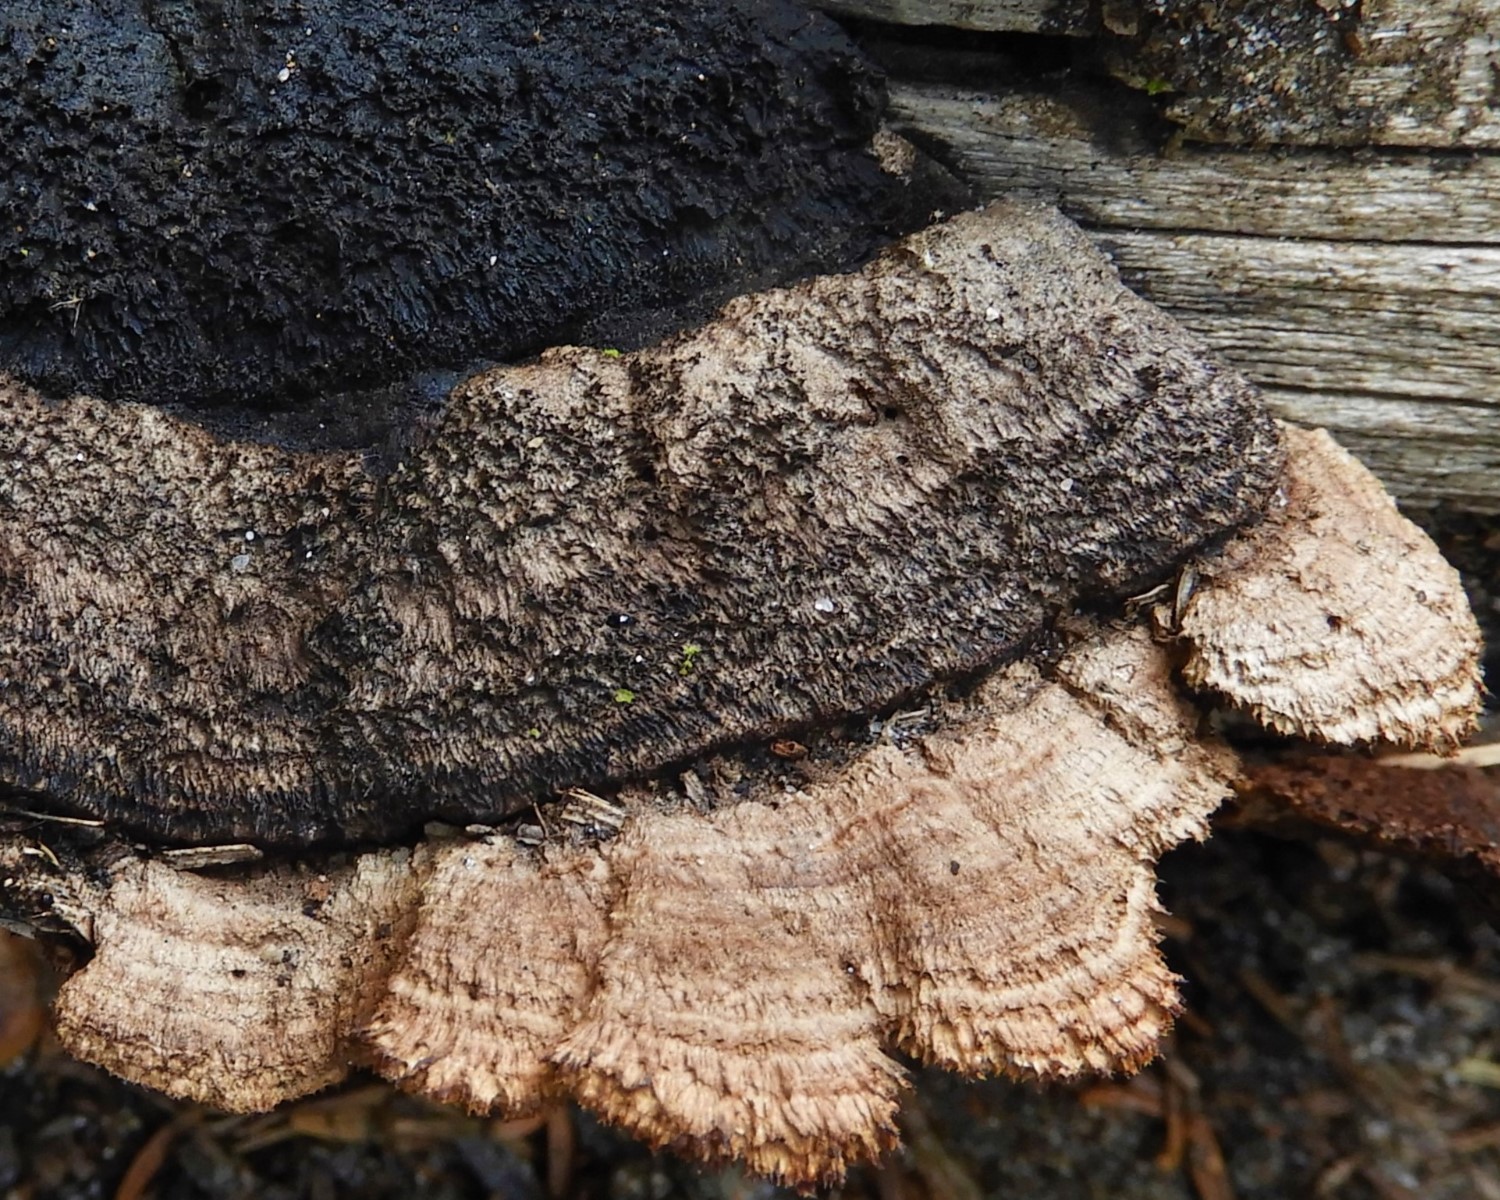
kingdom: Fungi
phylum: Basidiomycota
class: Agaricomycetes
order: Gloeophyllales
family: Gloeophyllaceae
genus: Gloeophyllum
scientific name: Gloeophyllum sepiarium
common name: fyrre-korkhat
